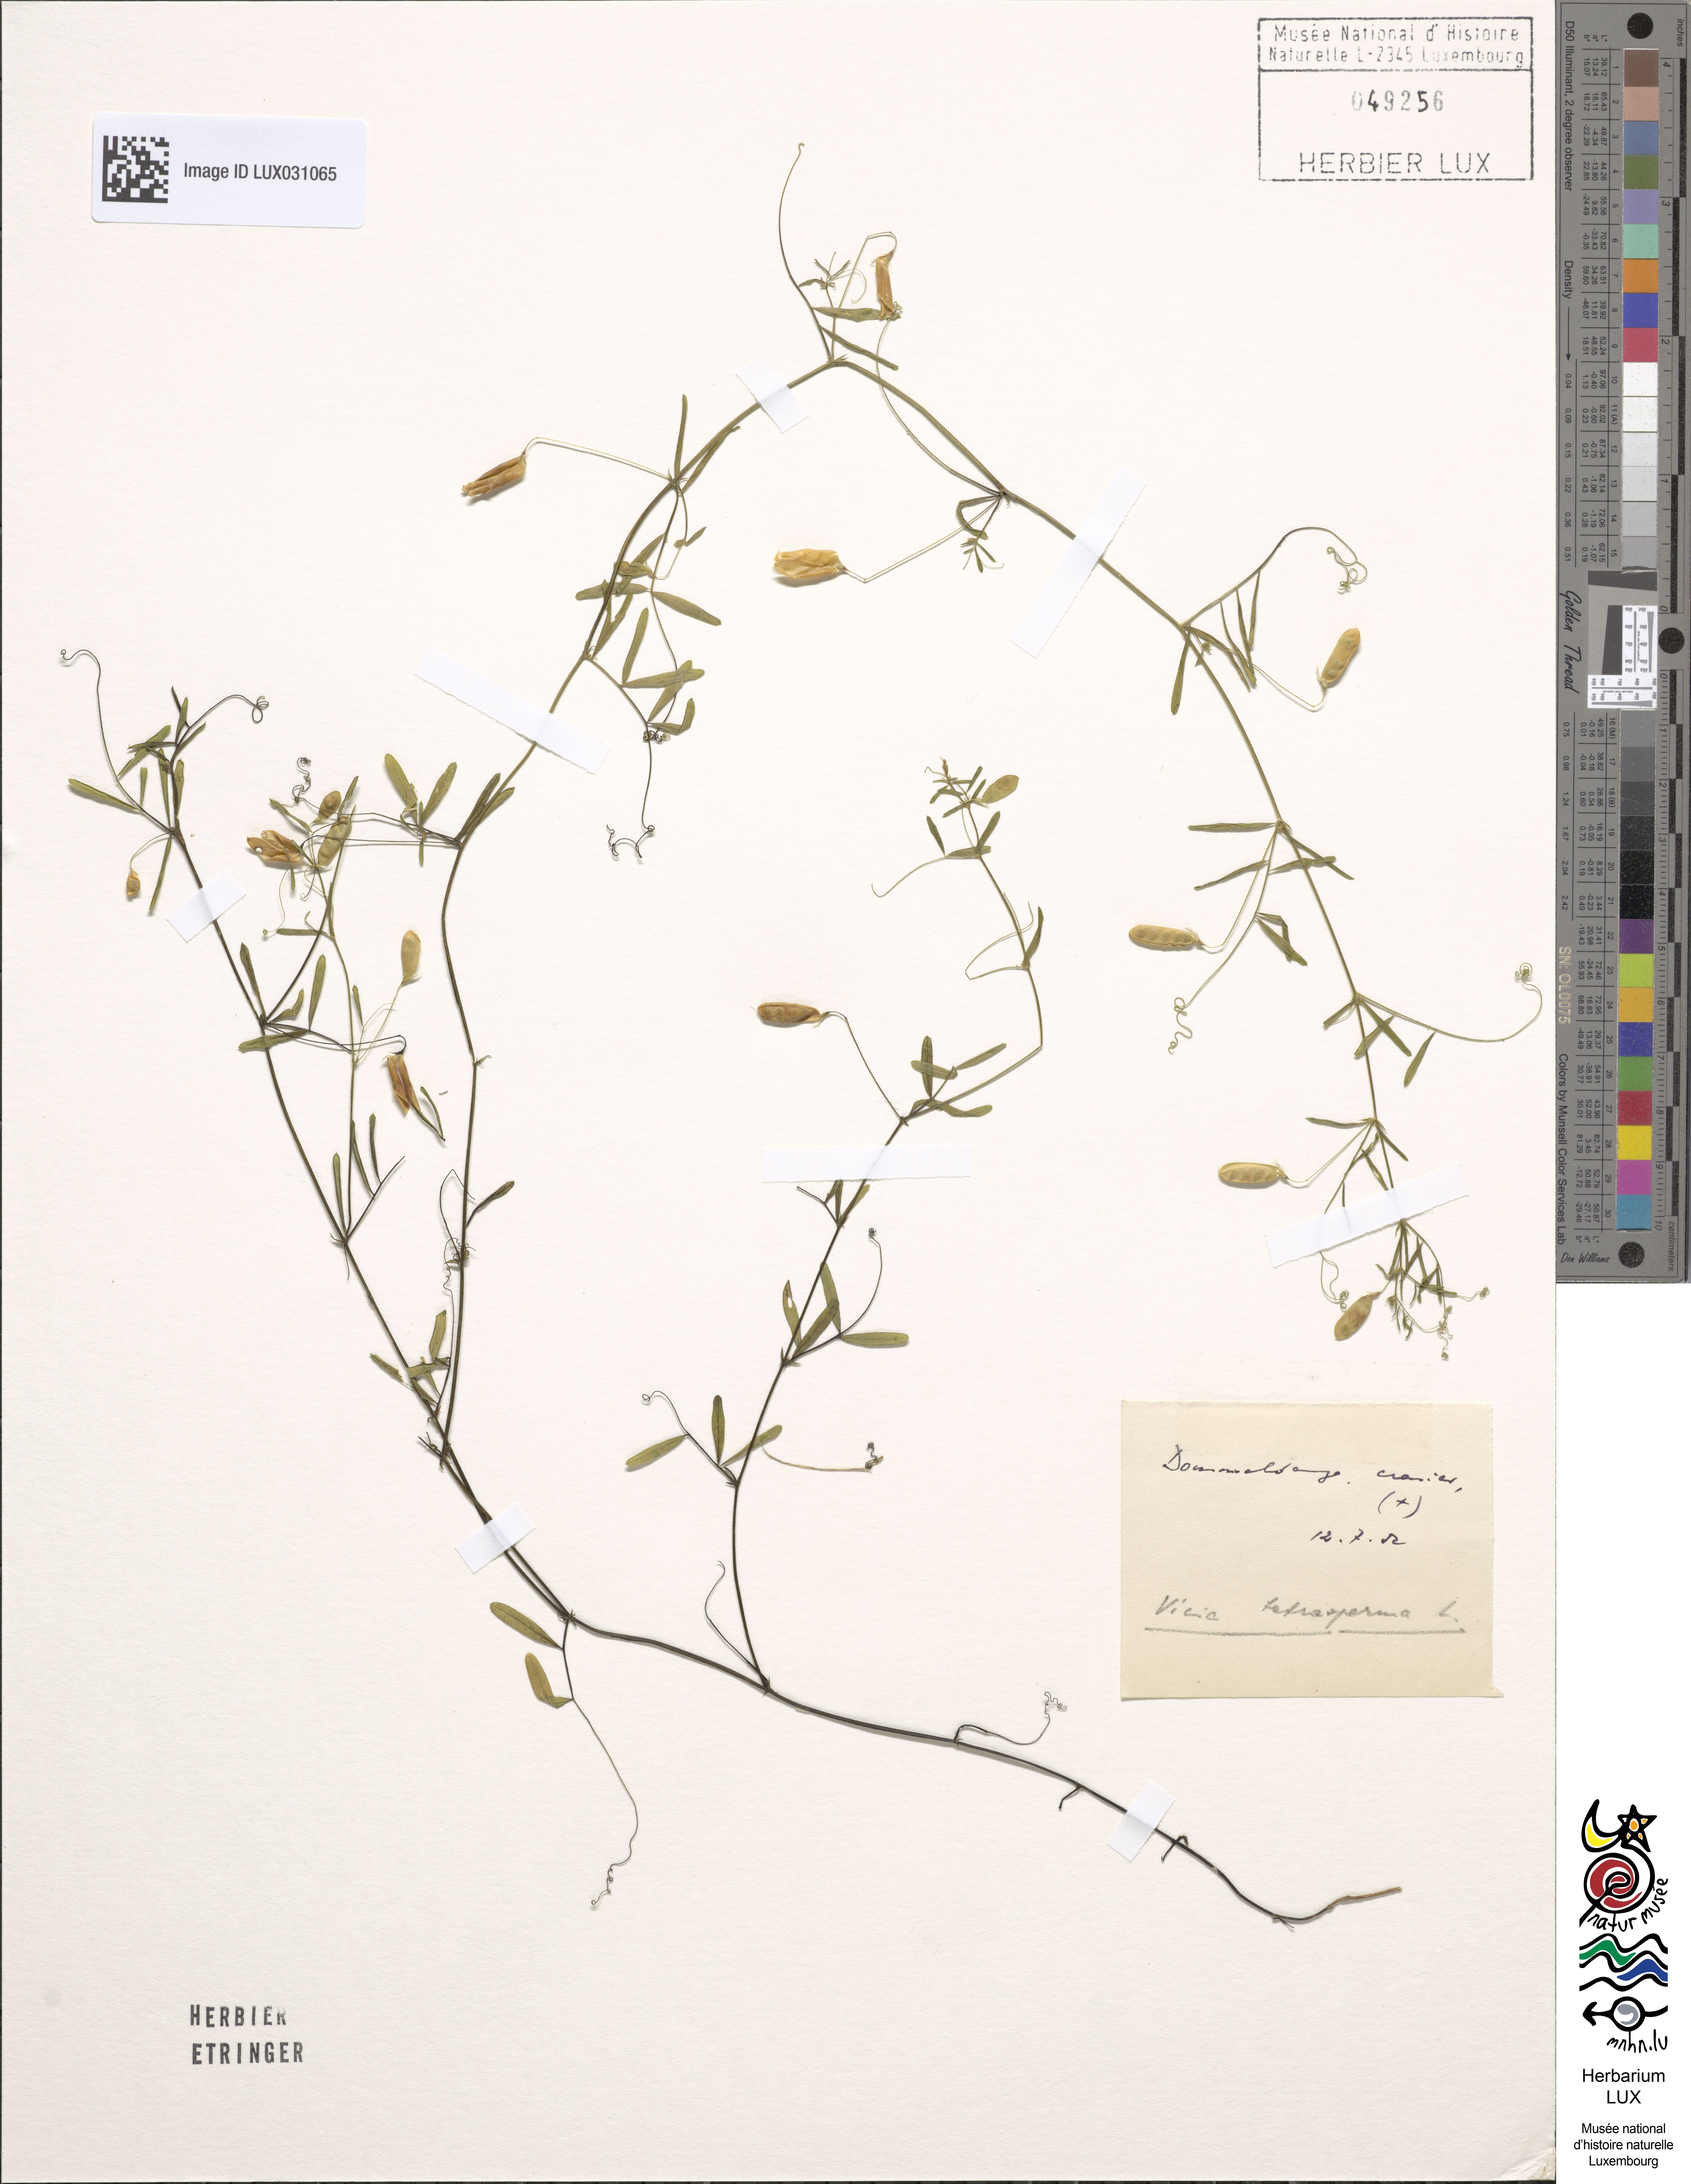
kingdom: Plantae
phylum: Tracheophyta
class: Magnoliopsida
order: Fabales
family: Fabaceae
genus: Vicia
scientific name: Vicia tetrasperma
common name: Smooth tare
